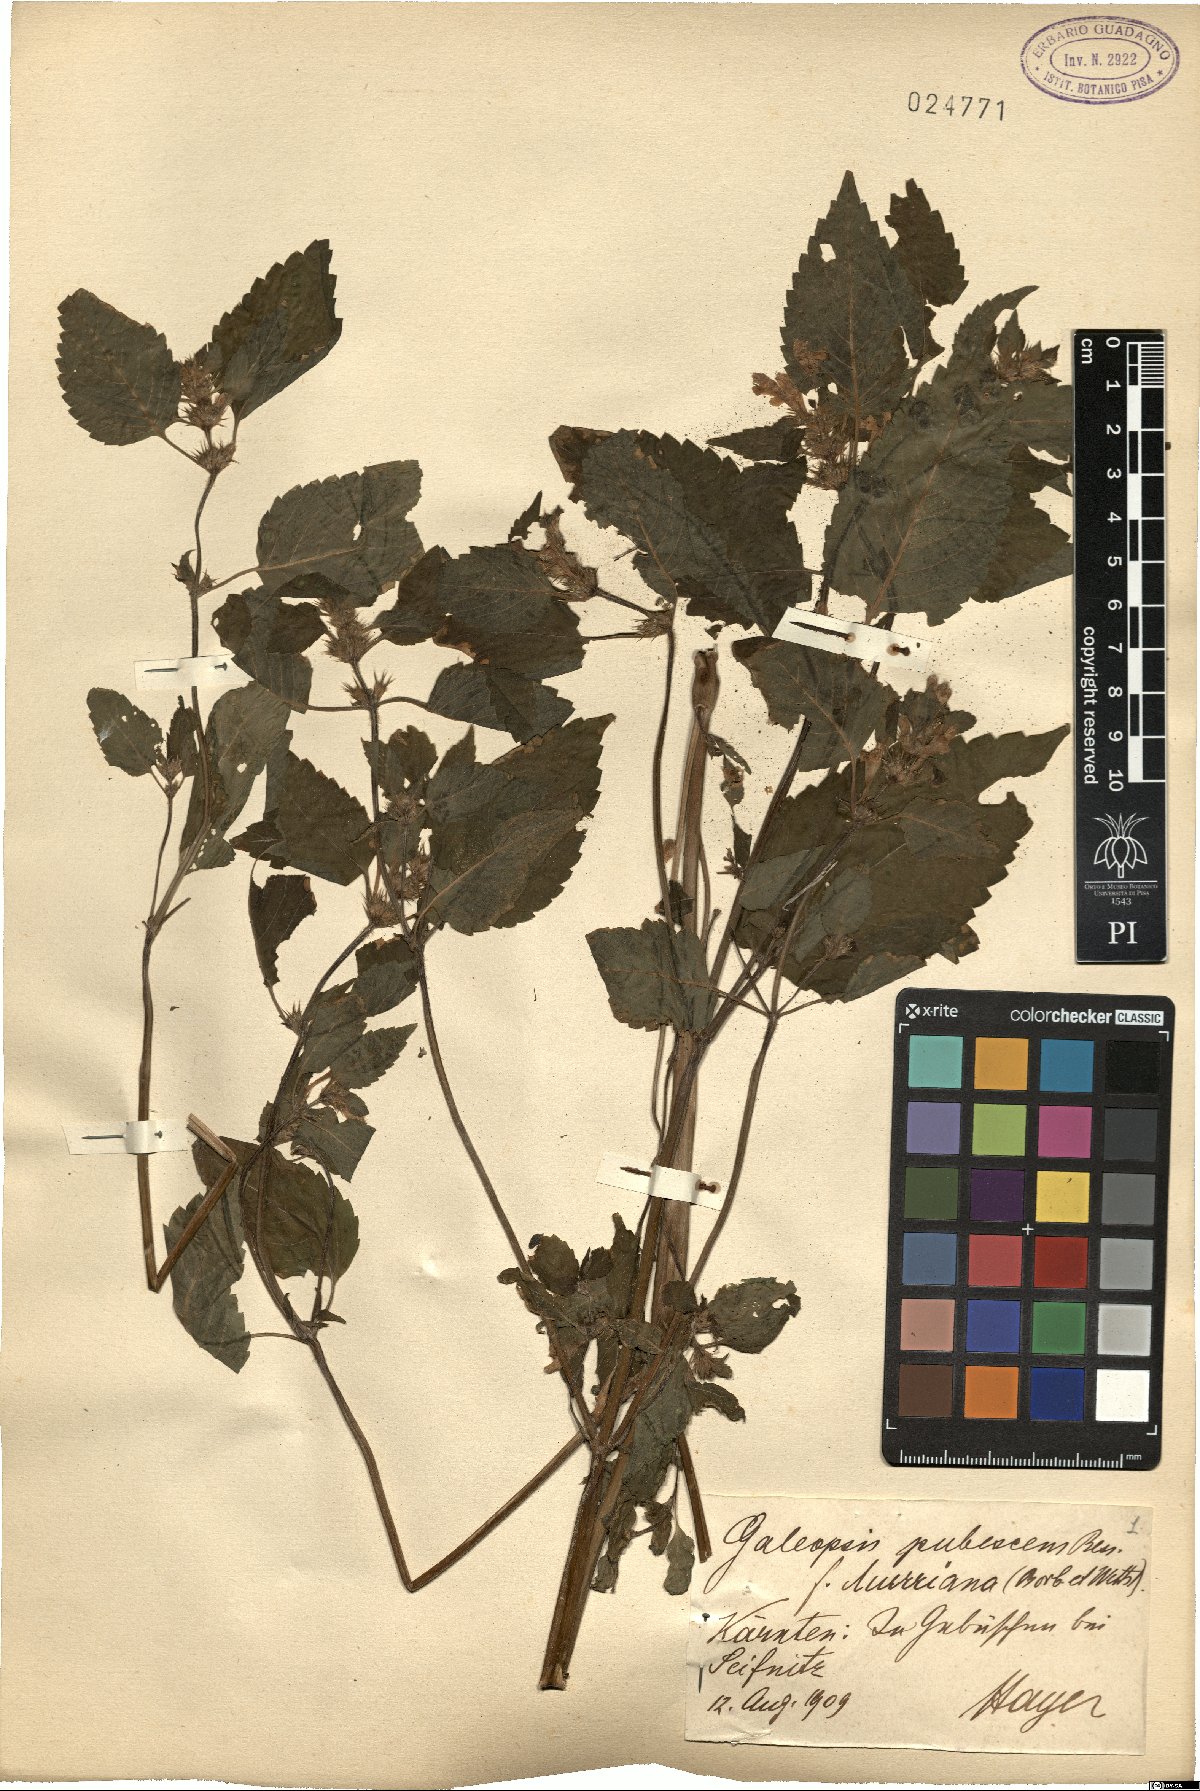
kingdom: Plantae
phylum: Tracheophyta
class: Magnoliopsida
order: Lamiales
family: Lamiaceae
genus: Galeopsis
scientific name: Galeopsis pubescens
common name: Downy hemp-nettle
